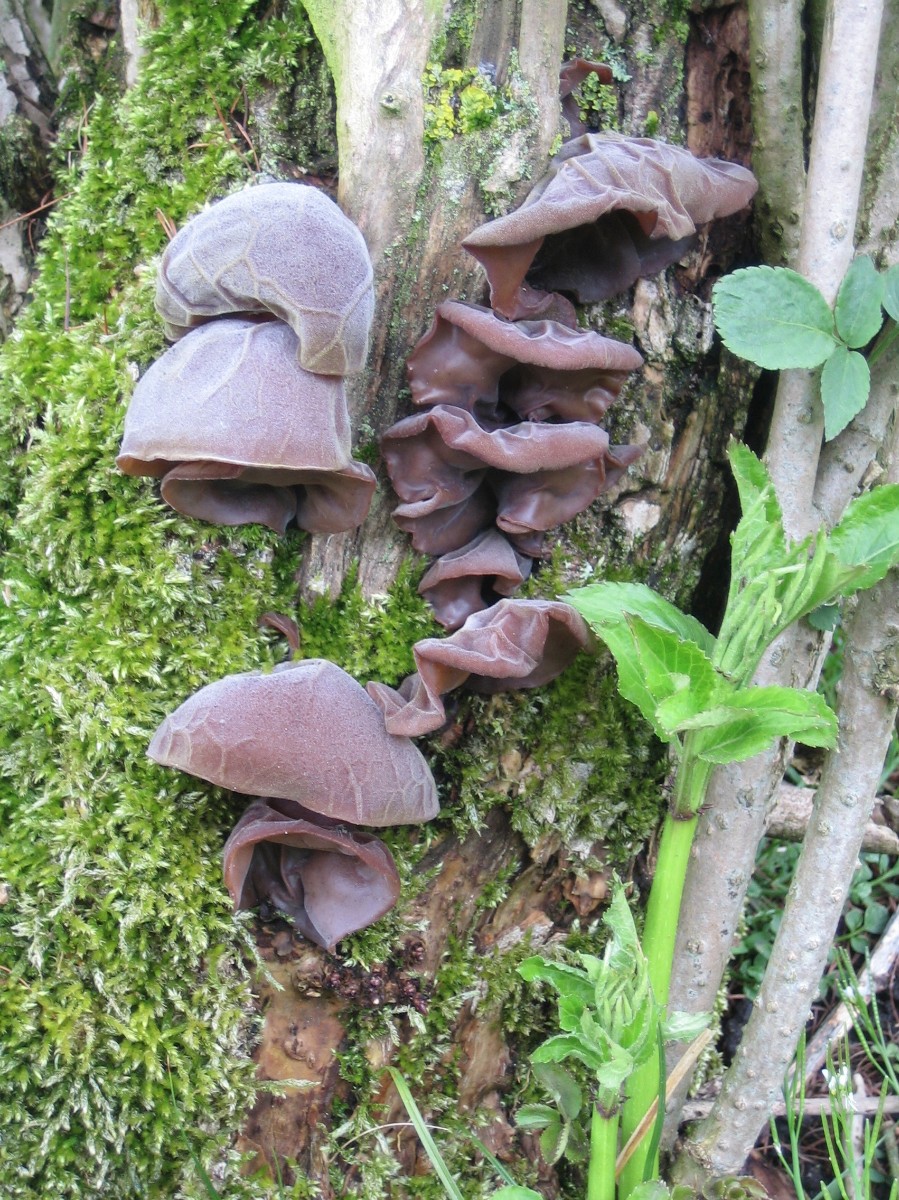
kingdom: Fungi
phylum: Basidiomycota
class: Agaricomycetes
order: Auriculariales
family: Auriculariaceae
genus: Auricularia
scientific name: Auricularia auricula-judae
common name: almindelig judasøre
